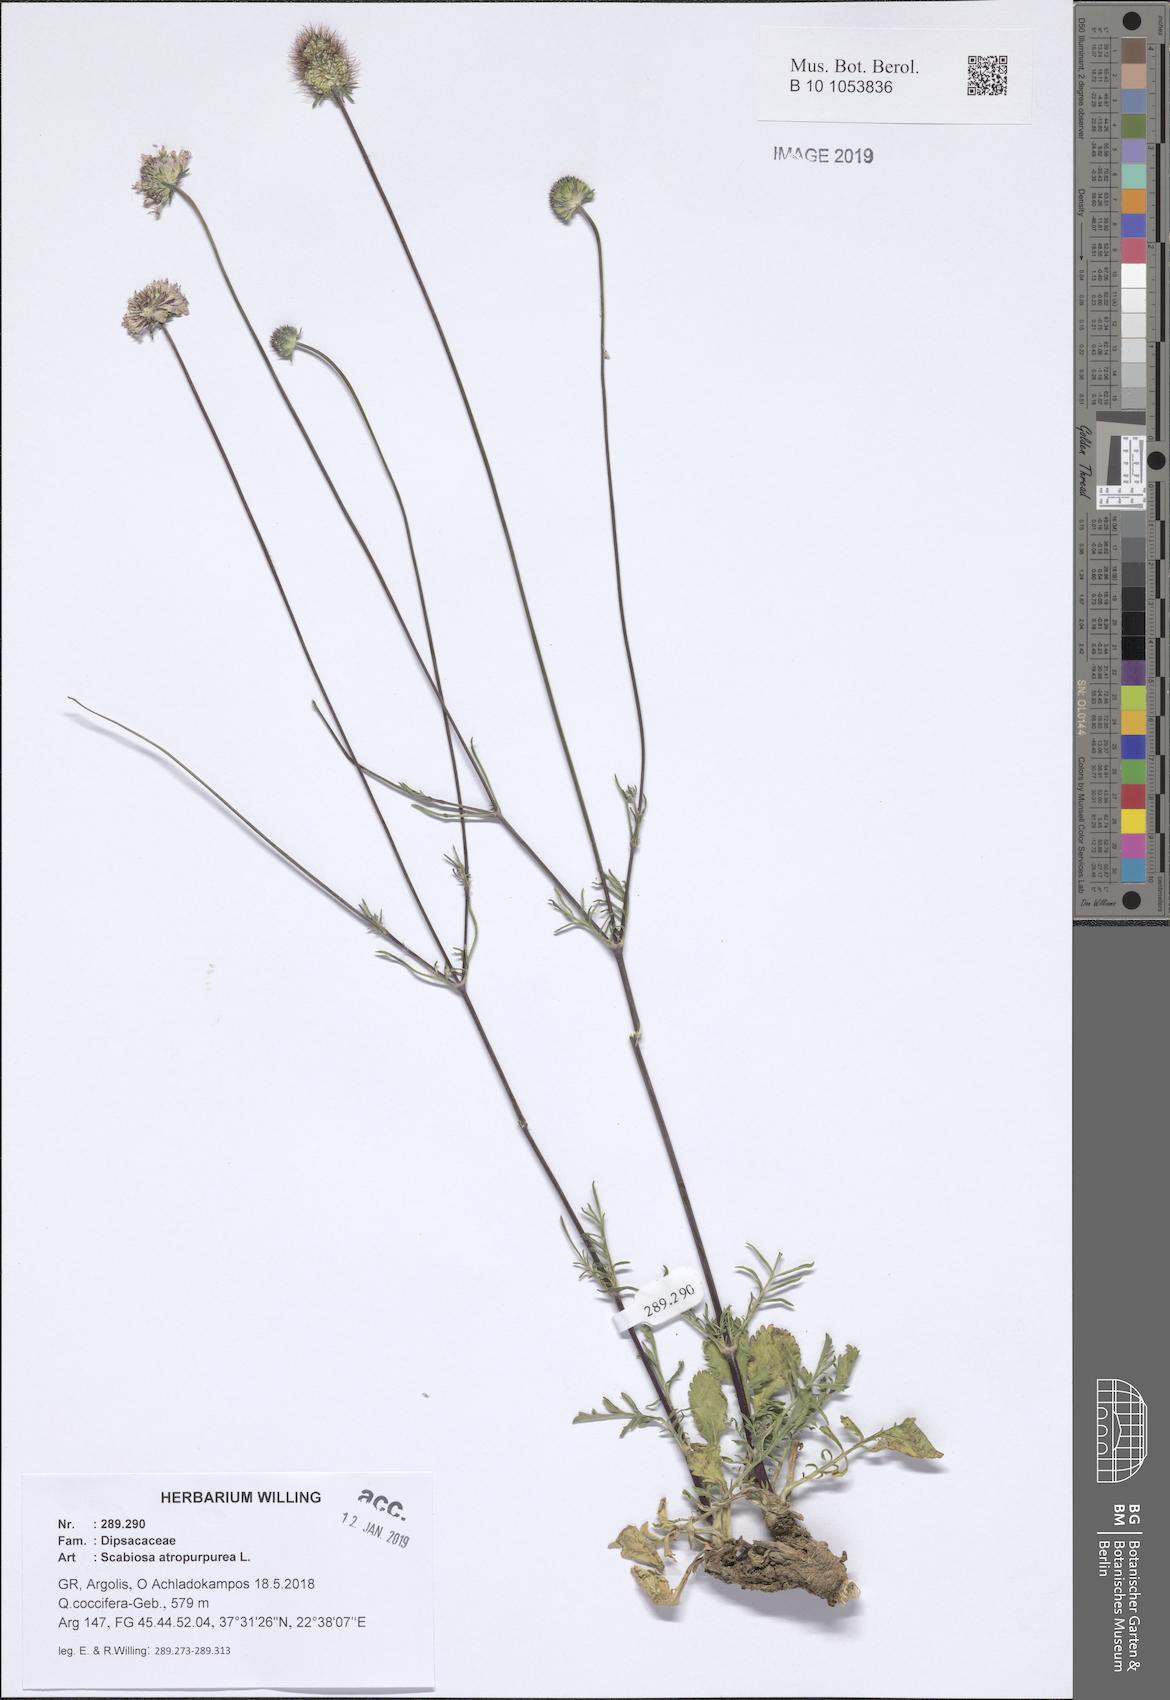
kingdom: Plantae
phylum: Tracheophyta
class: Magnoliopsida
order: Dipsacales
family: Caprifoliaceae
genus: Sixalix
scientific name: Sixalix atropurpurea
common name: Sweet scabious
